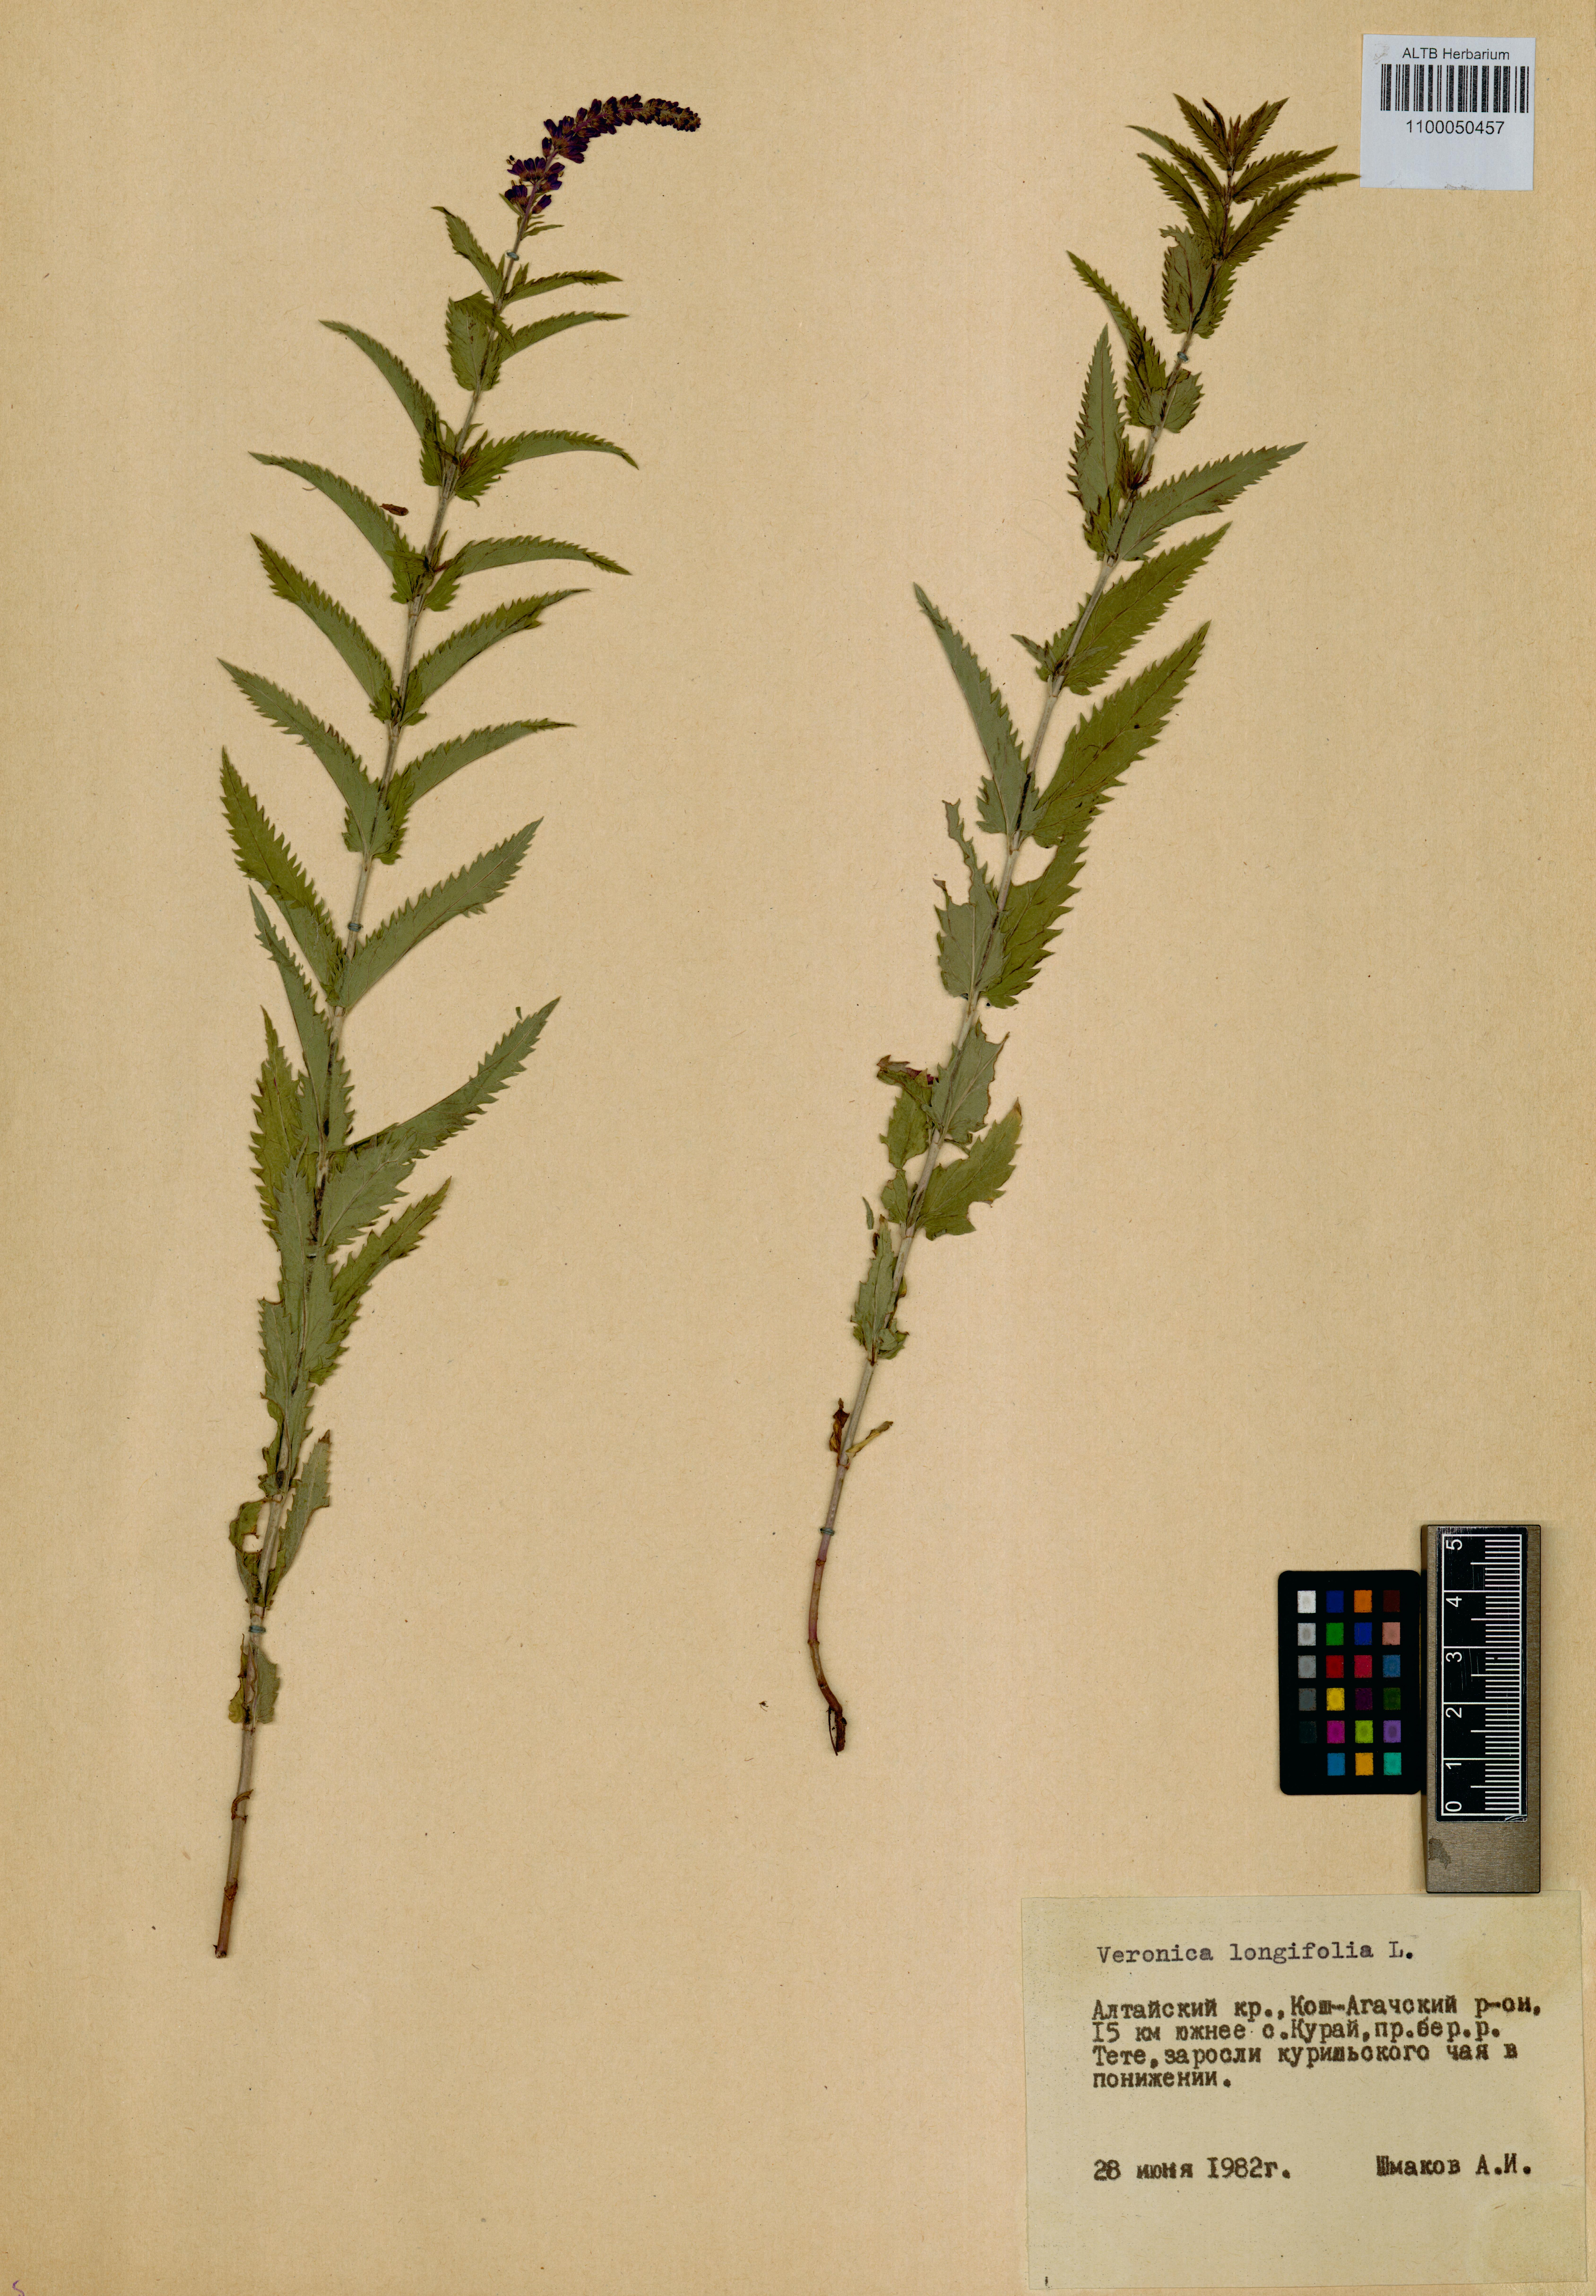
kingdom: Plantae
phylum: Tracheophyta
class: Magnoliopsida
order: Lamiales
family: Plantaginaceae
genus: Veronica
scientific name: Veronica longifolia
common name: Garden speedwell
